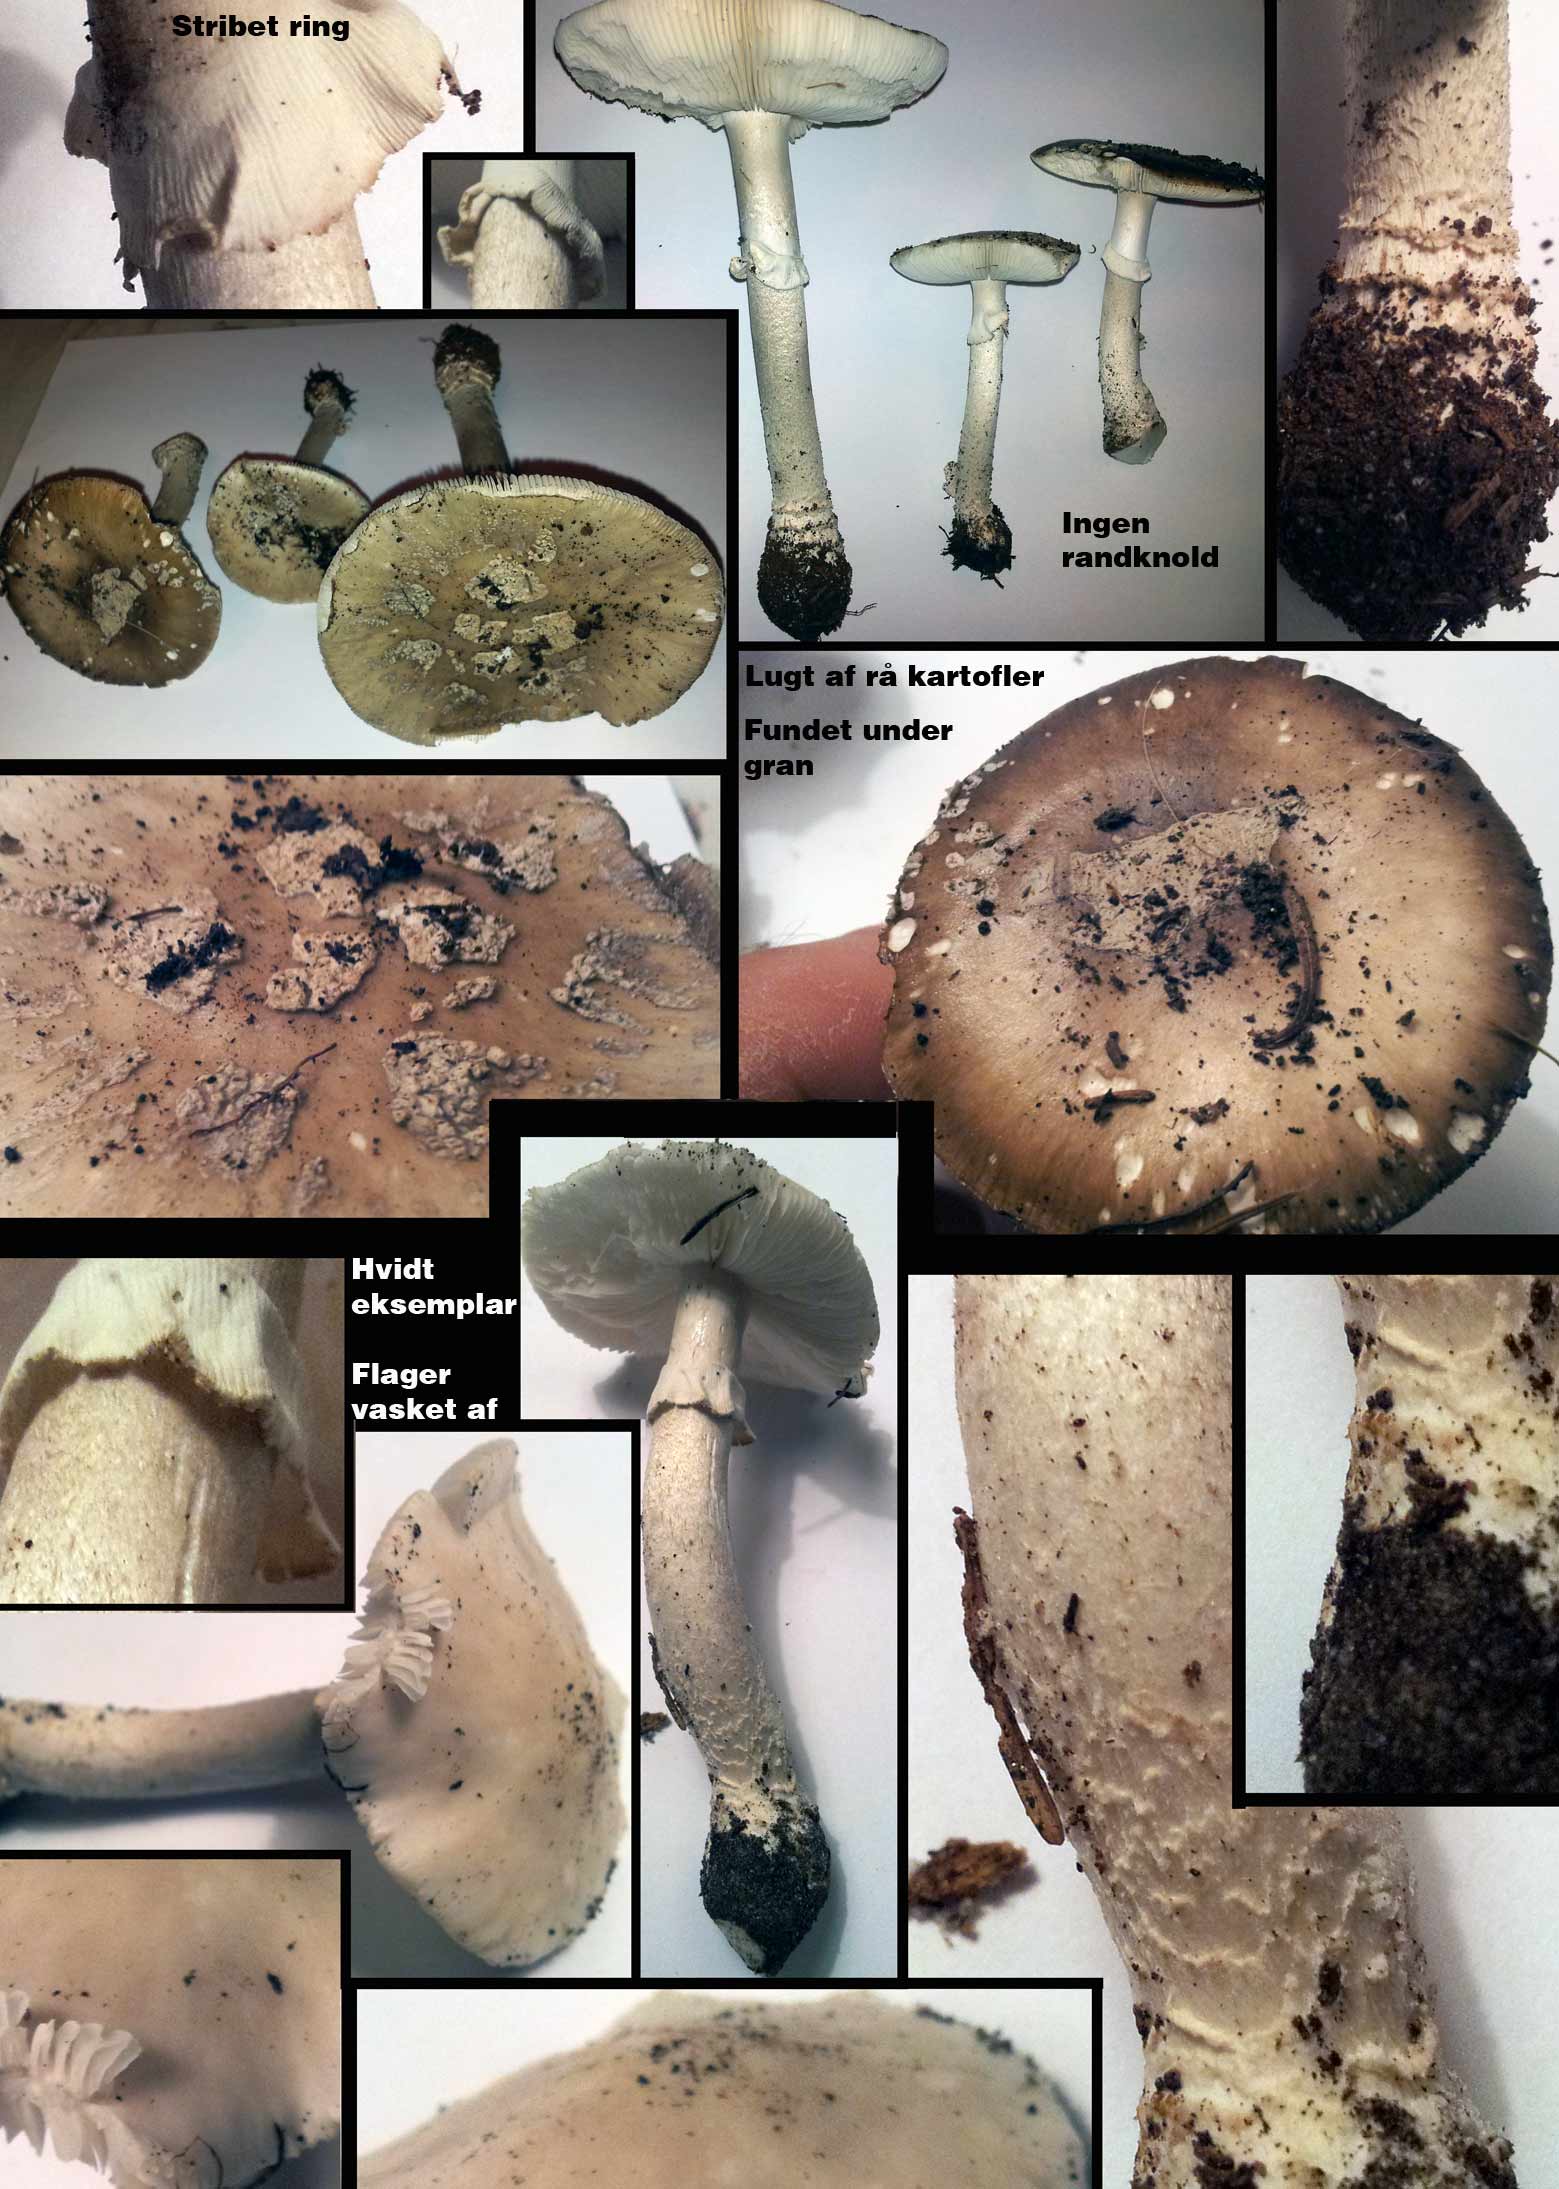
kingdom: Fungi
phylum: Basidiomycota
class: Agaricomycetes
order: Agaricales
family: Amanitaceae
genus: Amanita
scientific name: Amanita
